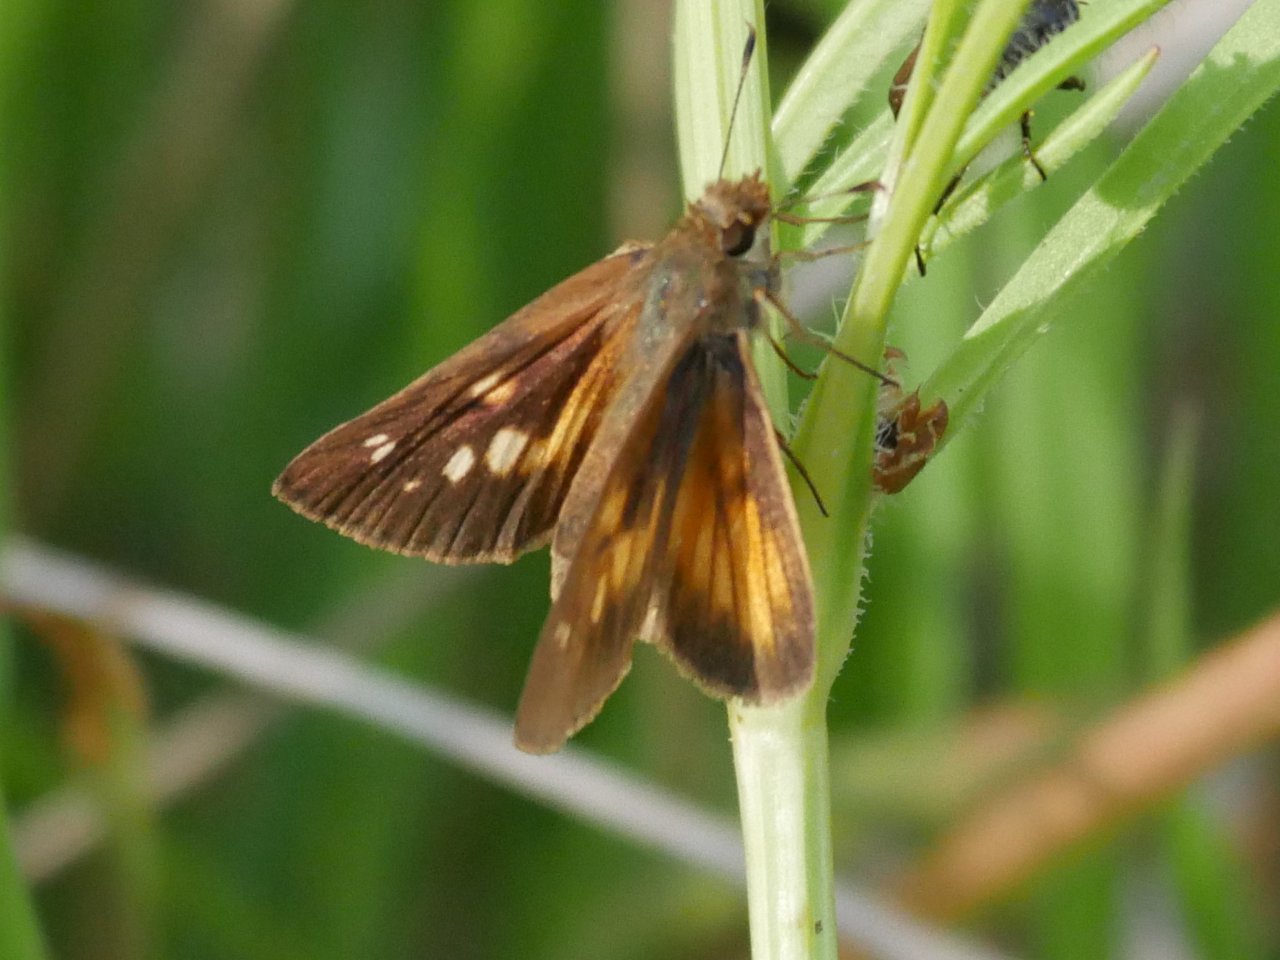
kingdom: Animalia
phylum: Arthropoda
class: Insecta
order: Lepidoptera
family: Hesperiidae
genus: Poanes
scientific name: Poanes viator
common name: Broad-winged Skipper
